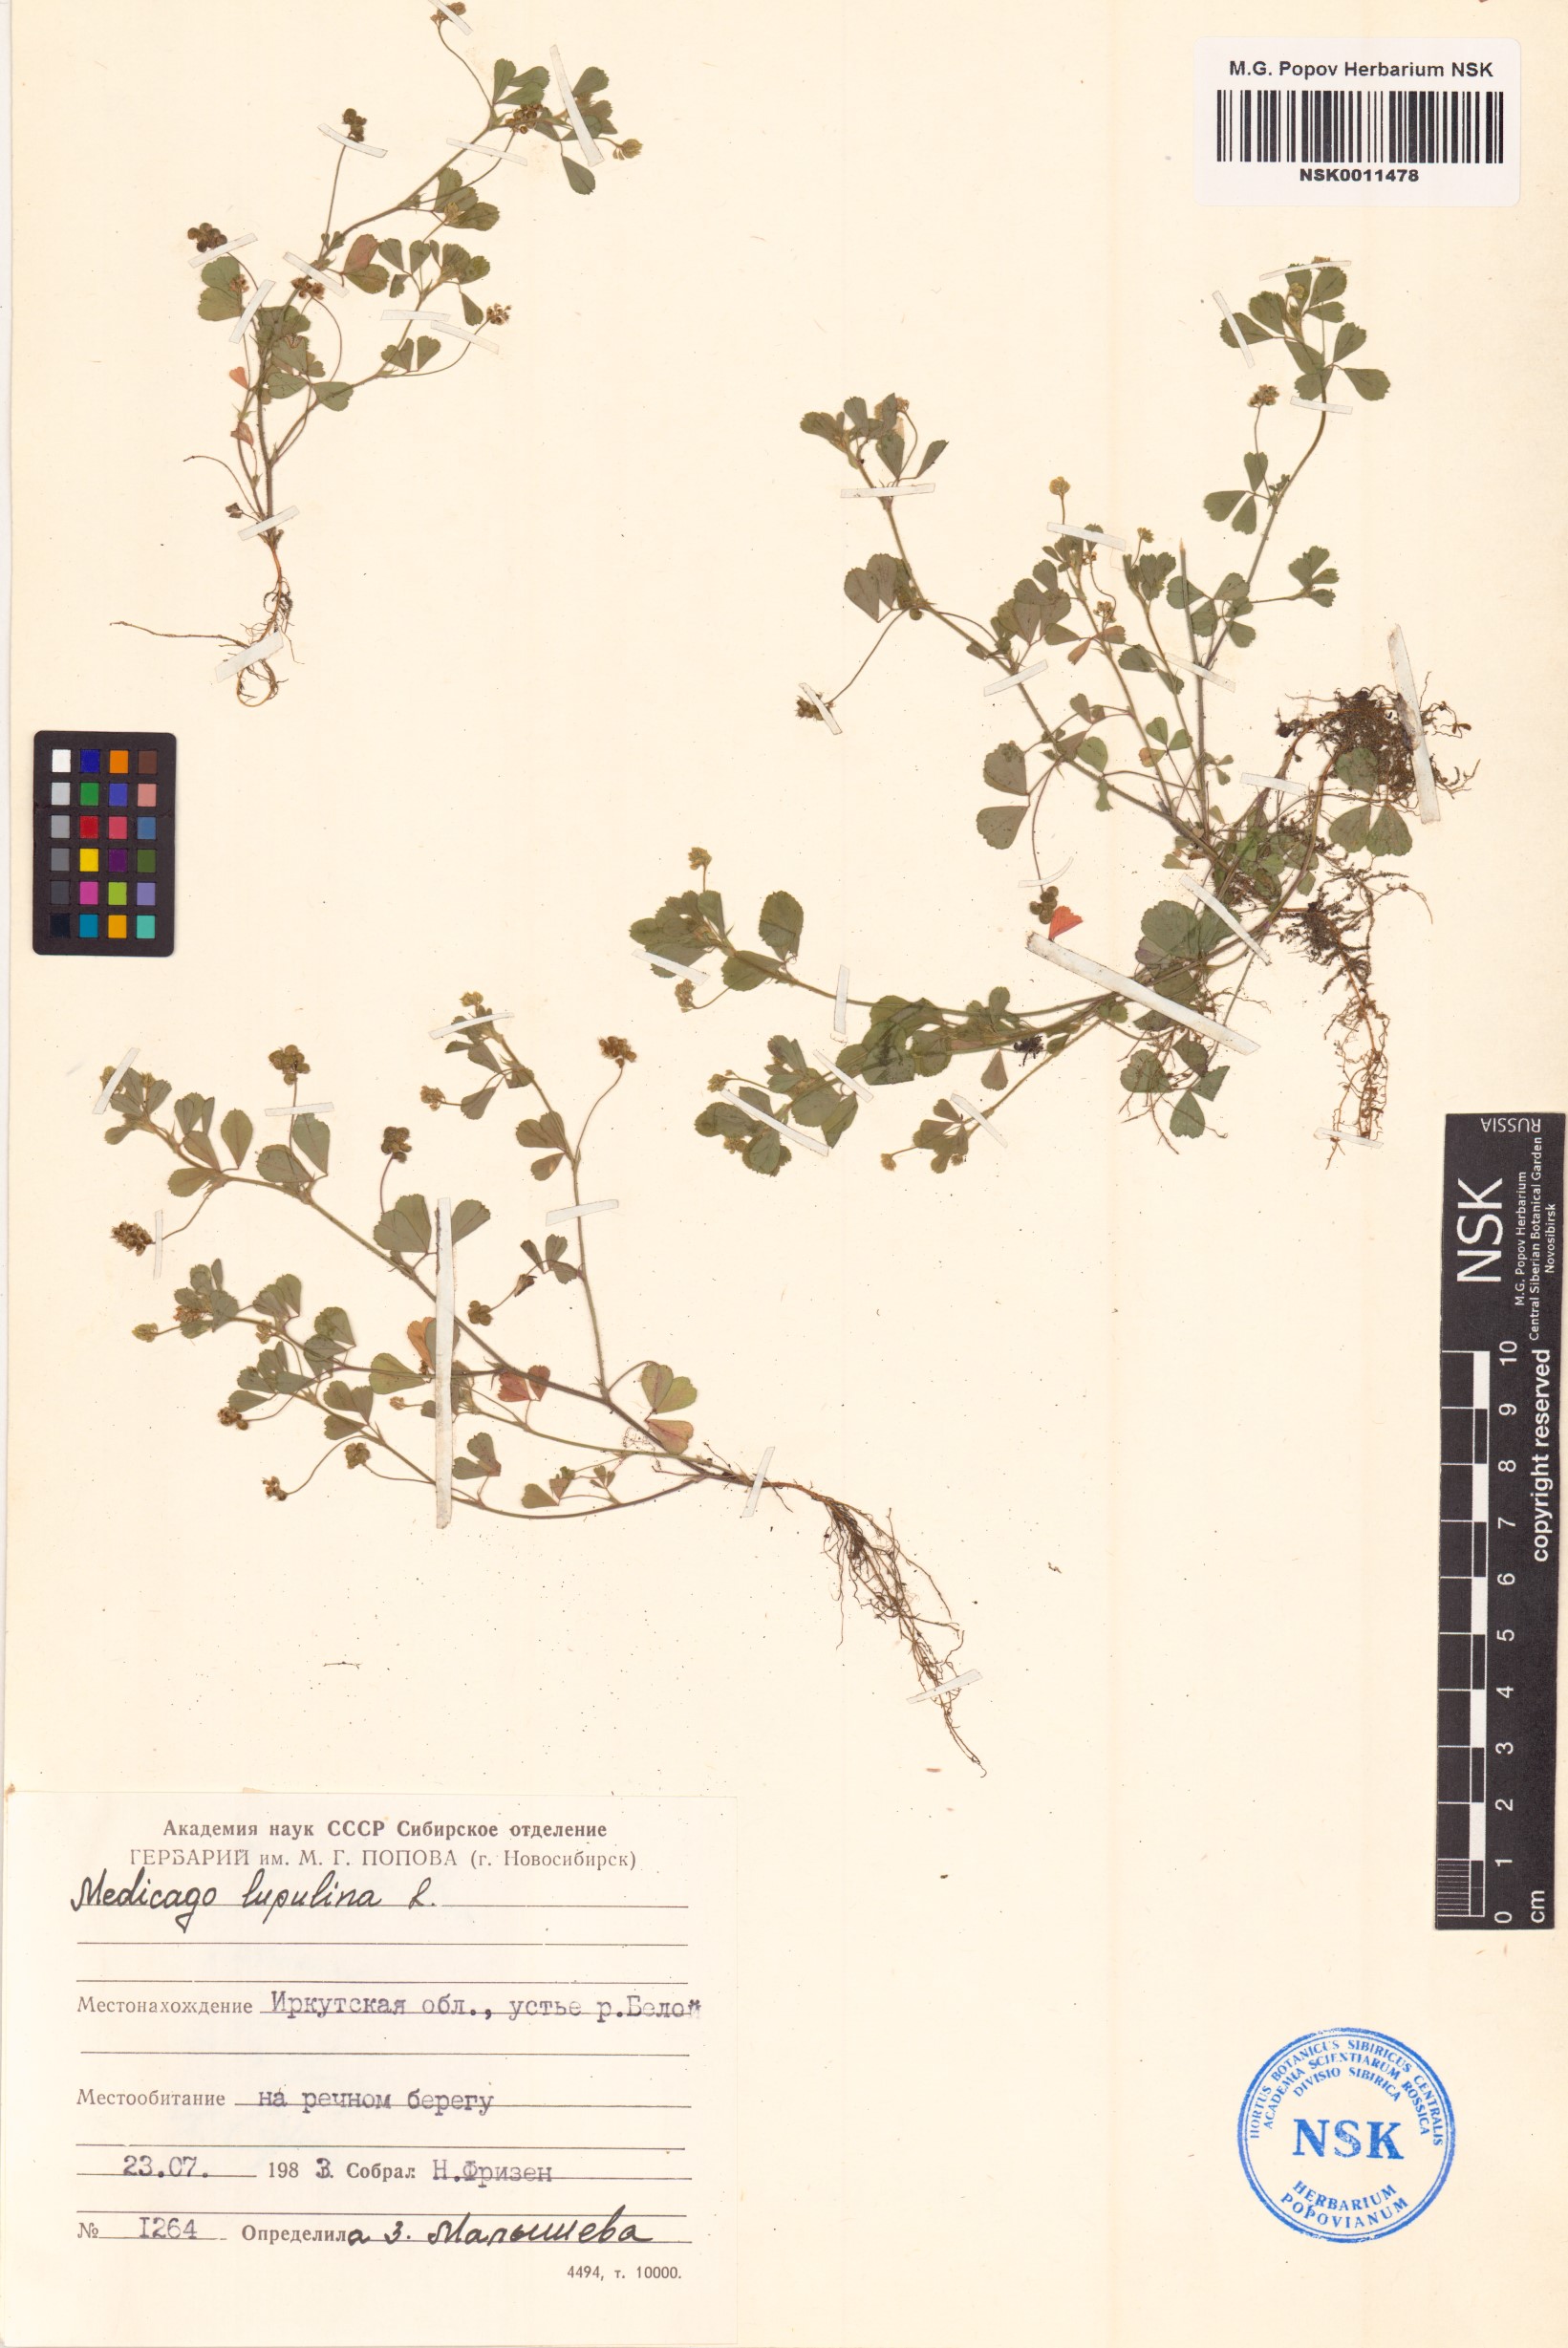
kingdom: Plantae
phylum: Tracheophyta
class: Magnoliopsida
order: Fabales
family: Fabaceae
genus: Medicago
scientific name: Medicago lupulina
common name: Black medick
